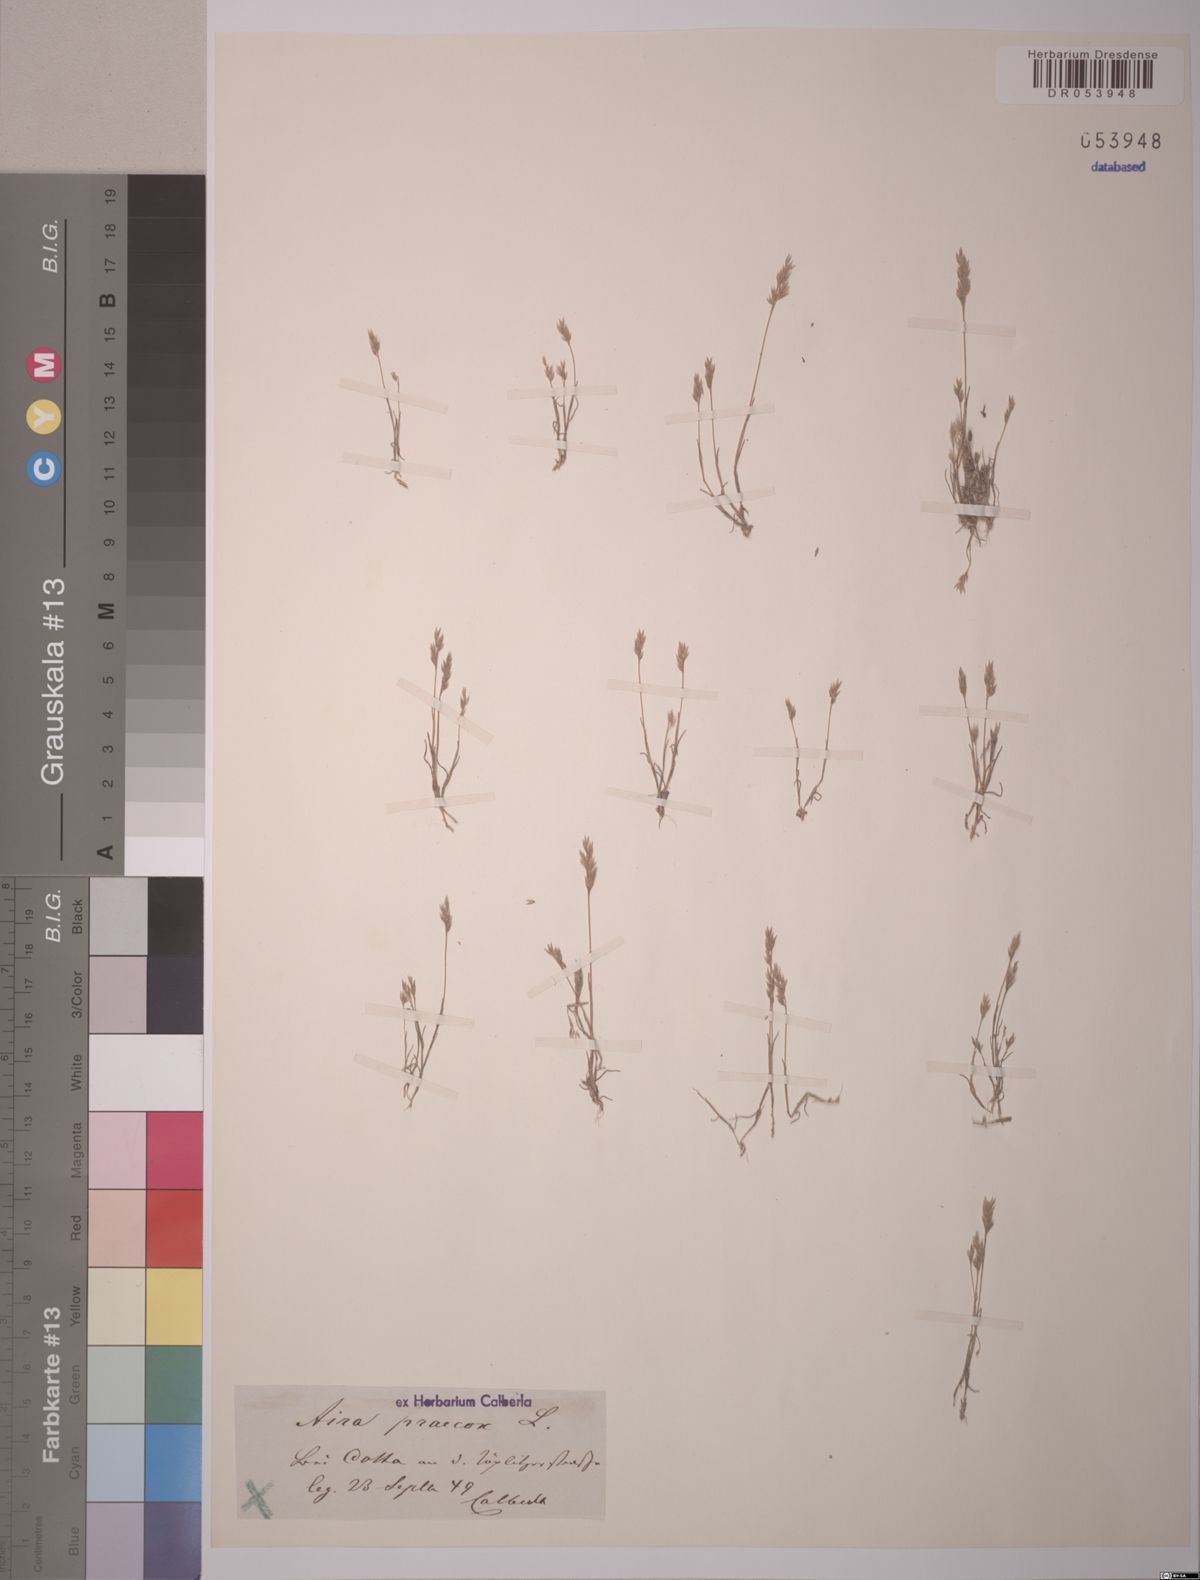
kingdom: Plantae
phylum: Tracheophyta
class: Liliopsida
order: Poales
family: Poaceae
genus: Aira
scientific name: Aira praecox
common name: Early hair-grass
